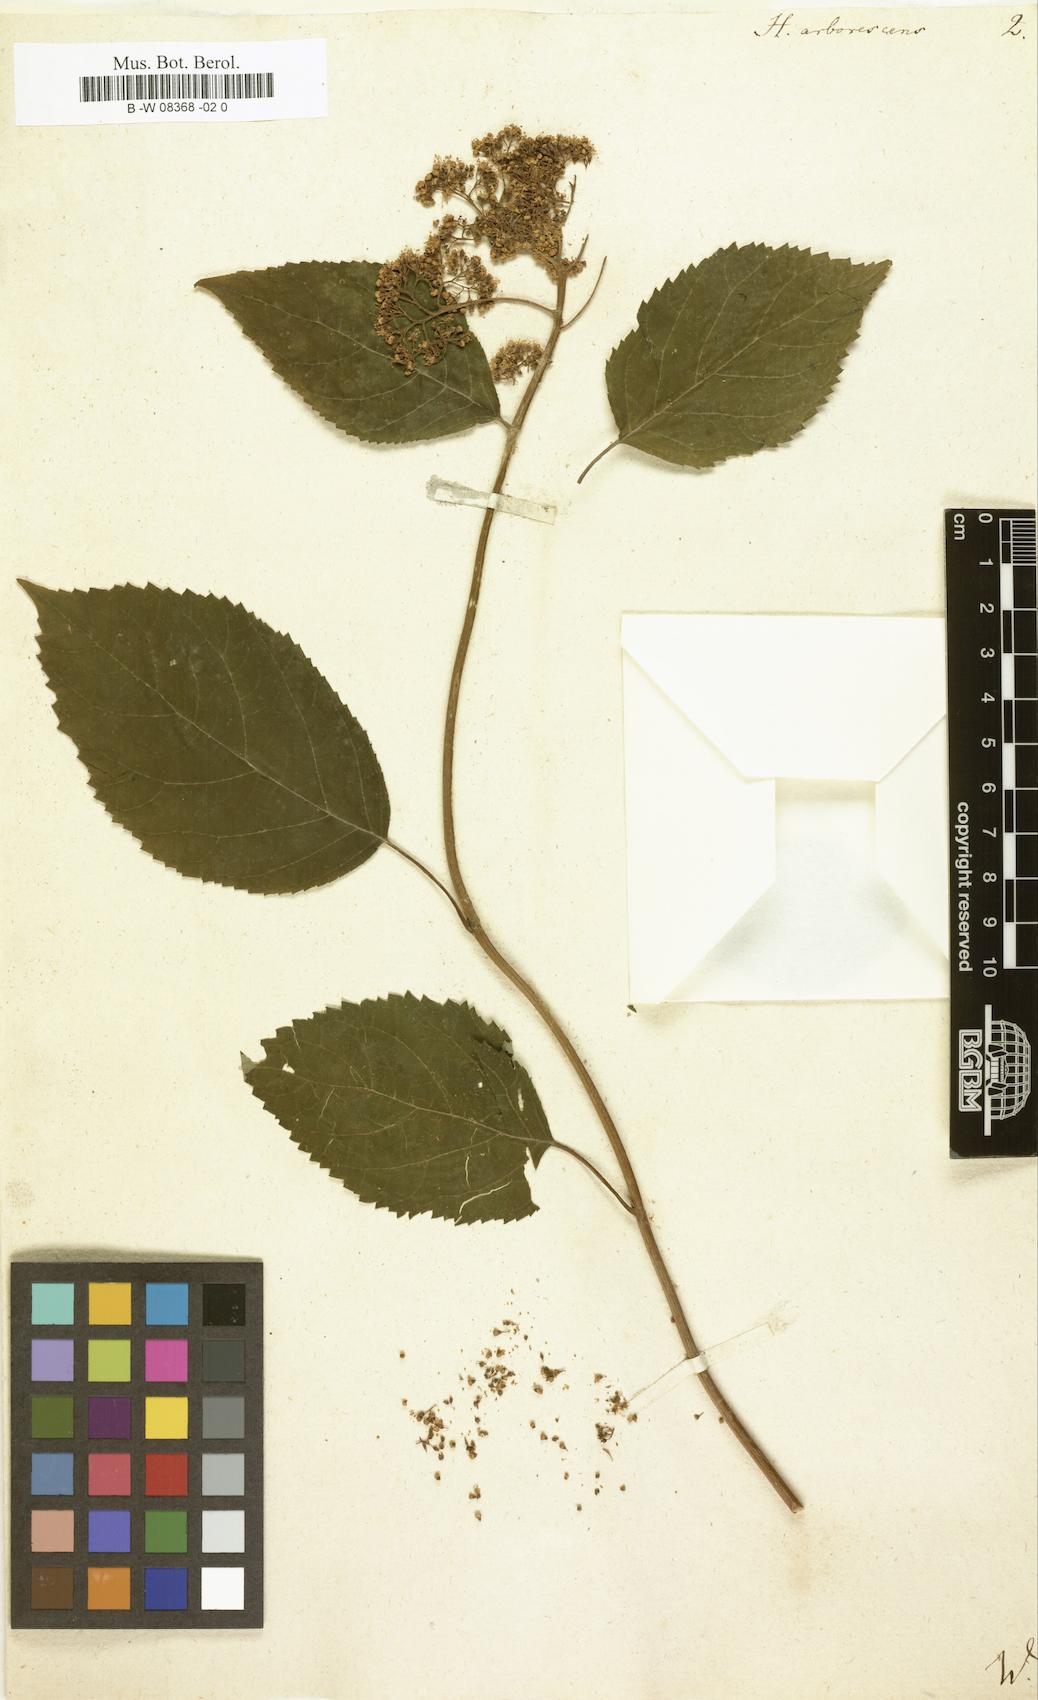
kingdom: Plantae
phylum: Tracheophyta
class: Magnoliopsida
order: Cornales
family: Hydrangeaceae
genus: Hydrangea
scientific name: Hydrangea arborescens
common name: Sevenbark
